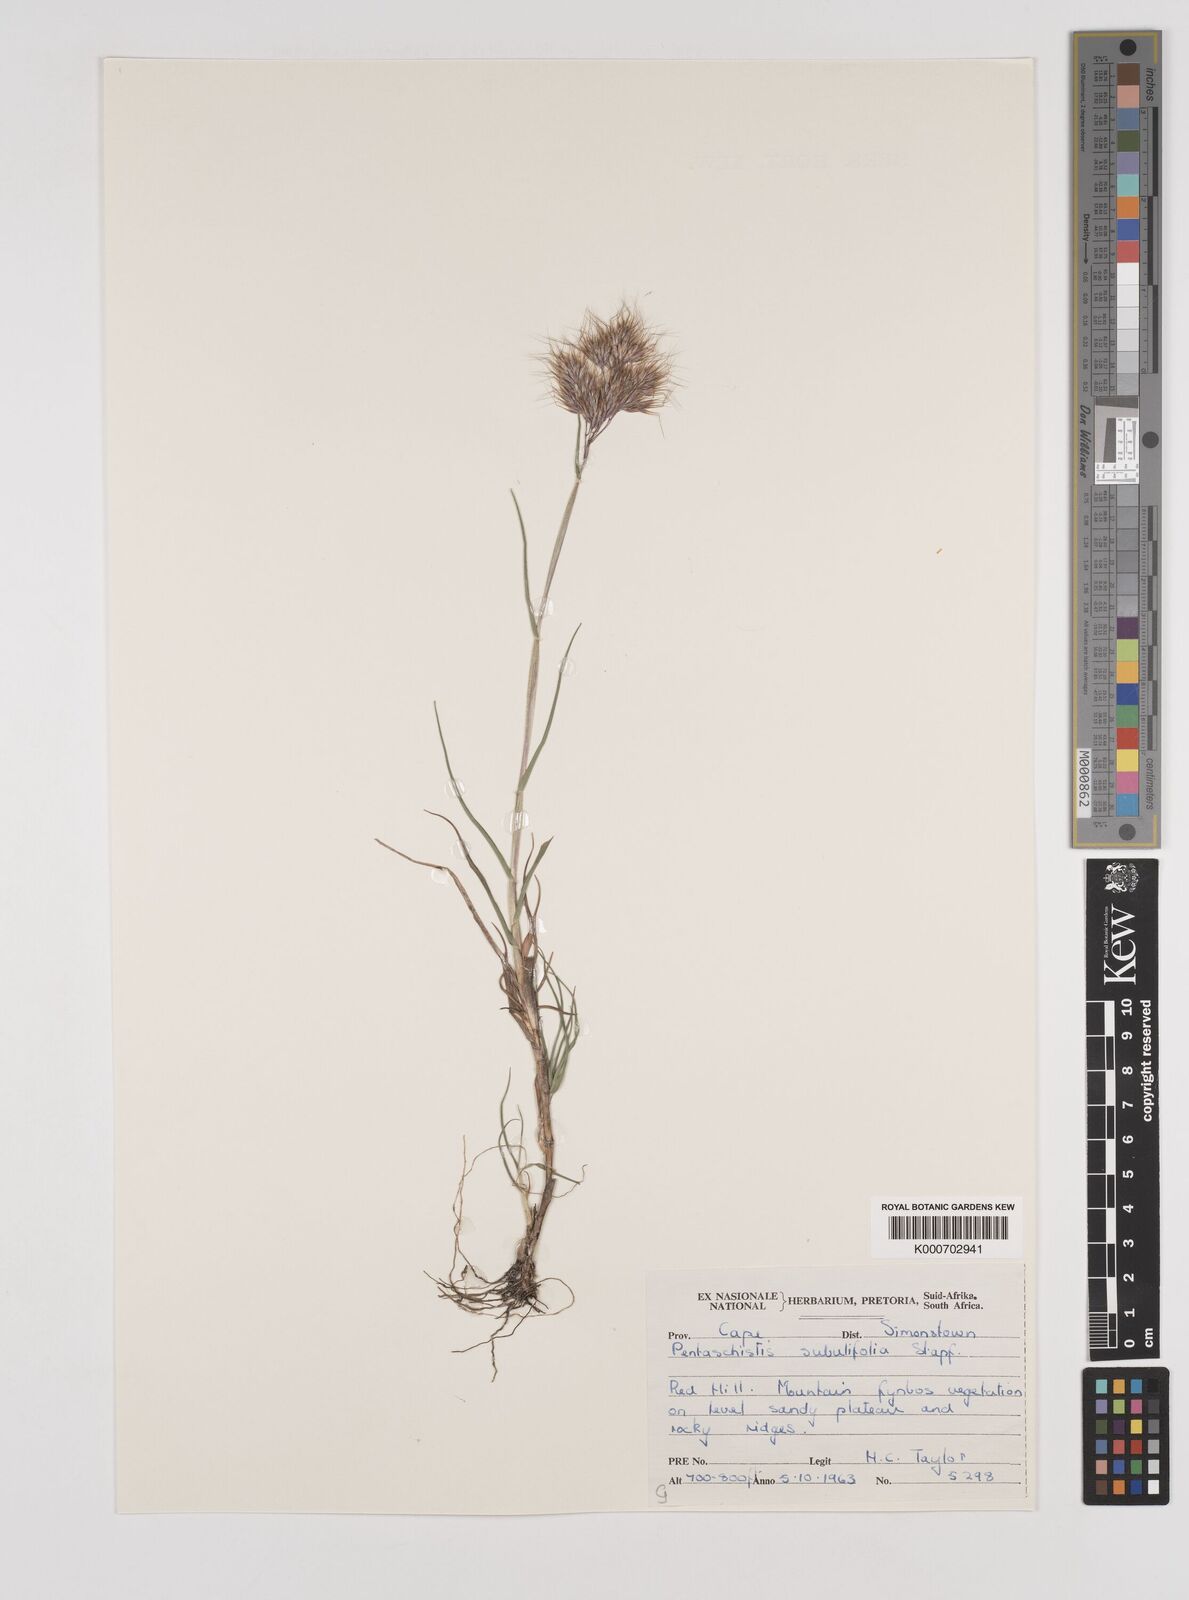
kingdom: Plantae
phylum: Tracheophyta
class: Liliopsida
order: Poales
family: Poaceae
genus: Pentameris
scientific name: Pentameris scabra
